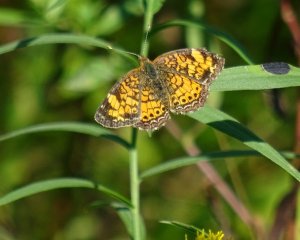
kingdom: Animalia
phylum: Arthropoda
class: Insecta
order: Lepidoptera
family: Nymphalidae
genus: Phyciodes
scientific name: Phyciodes tharos
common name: Northern Crescent
